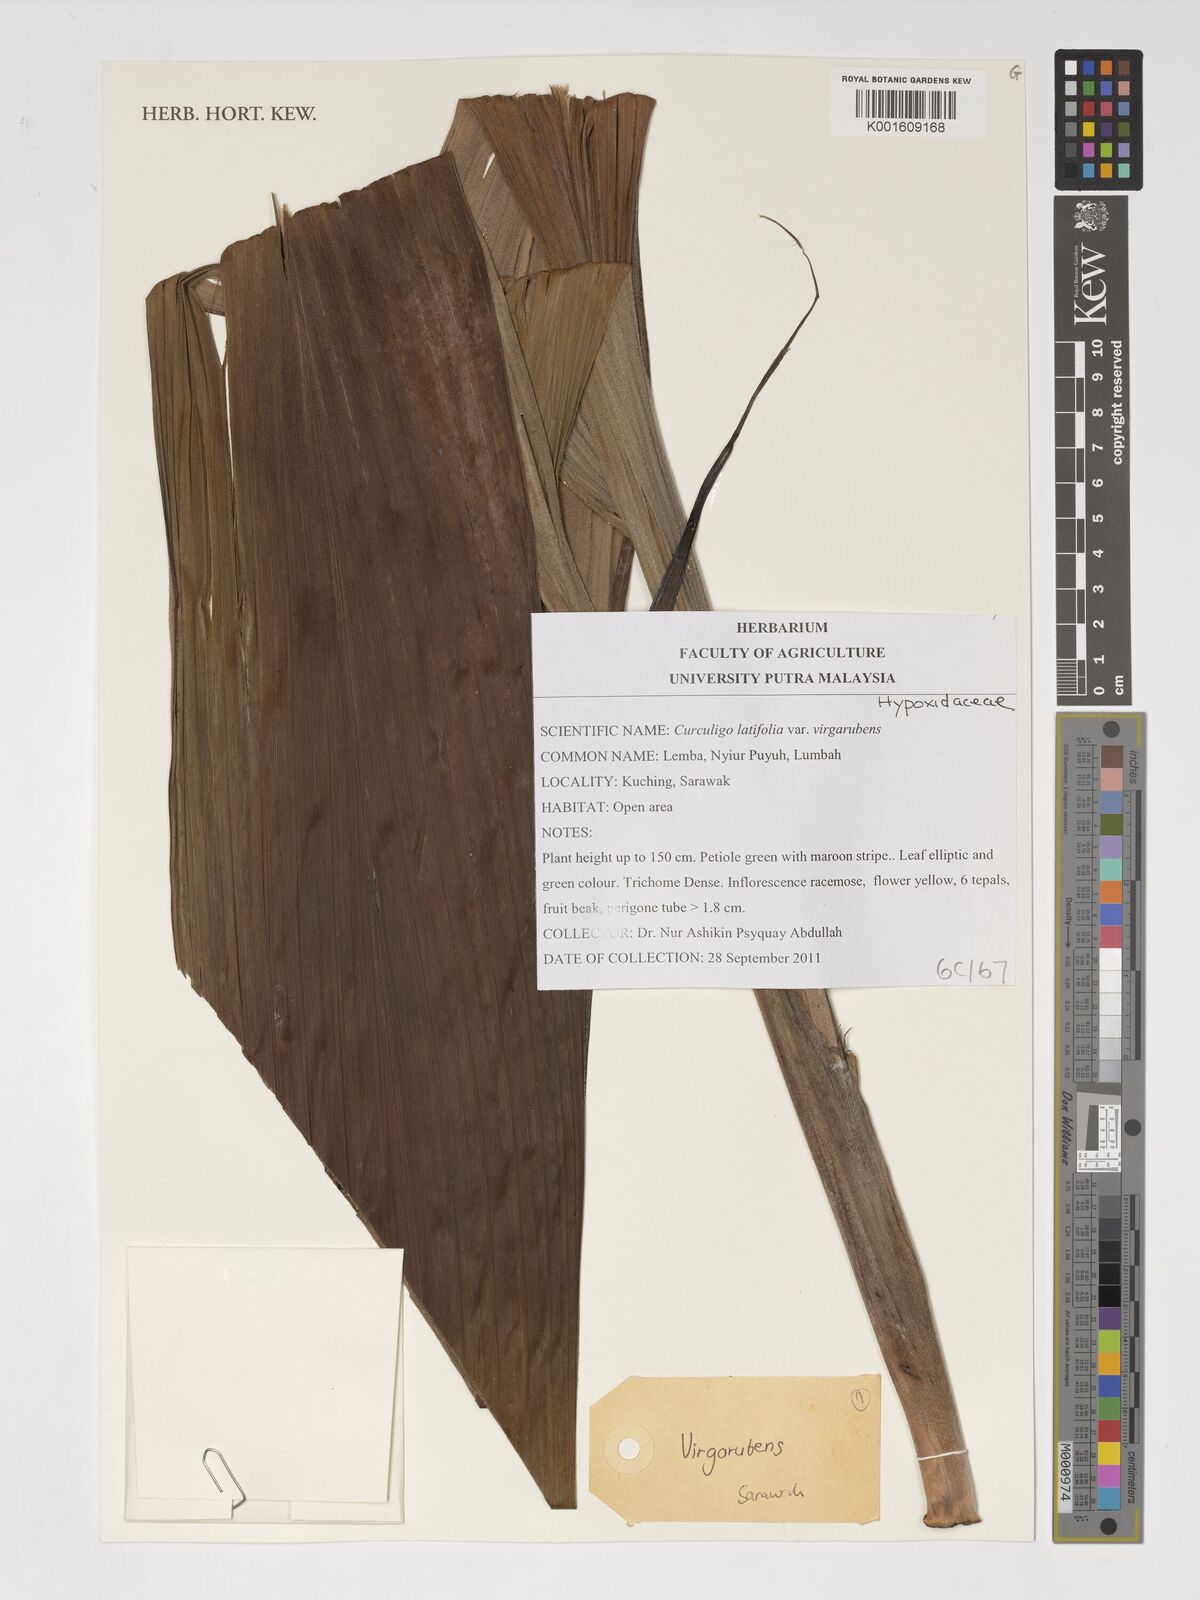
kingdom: Plantae
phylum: Tracheophyta
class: Liliopsida
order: Asparagales
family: Hypoxidaceae
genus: Curculigo
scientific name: Curculigo latifolia
